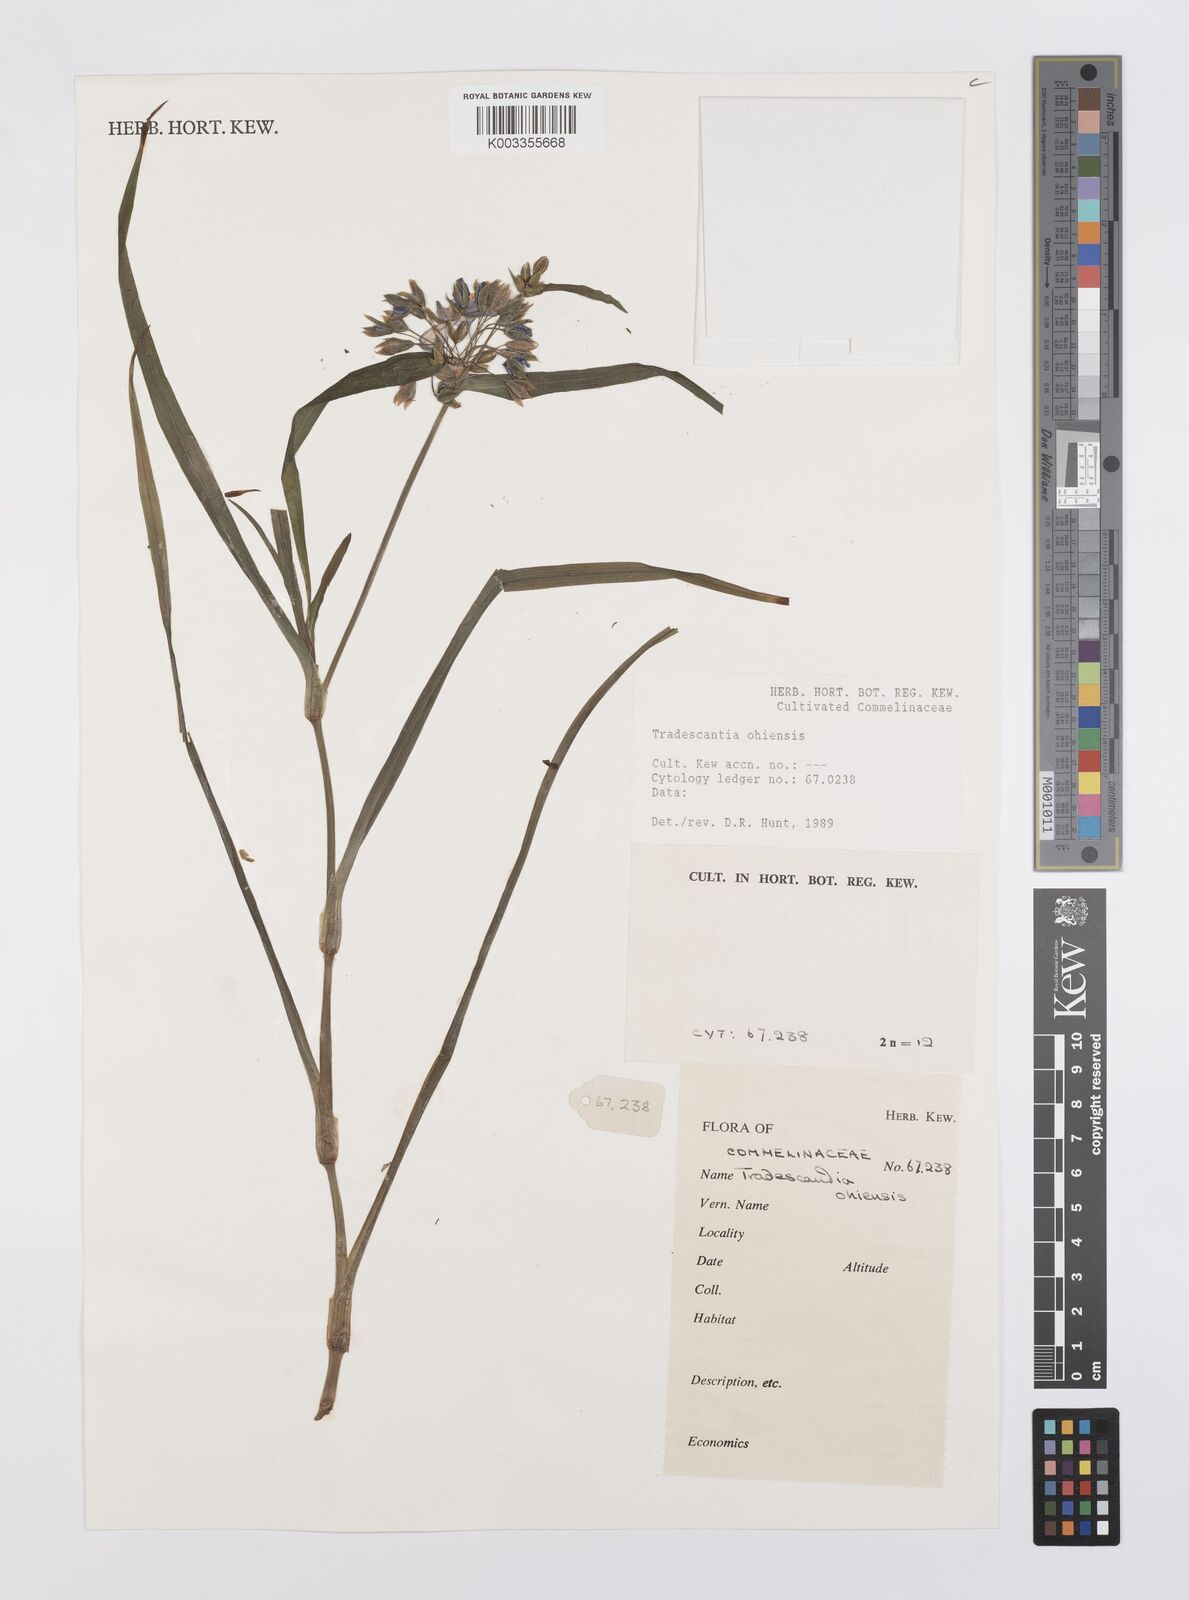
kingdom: Plantae
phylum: Tracheophyta
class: Liliopsida
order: Commelinales
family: Commelinaceae
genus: Tradescantia
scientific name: Tradescantia ohiensis
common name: Ohio spiderwort
